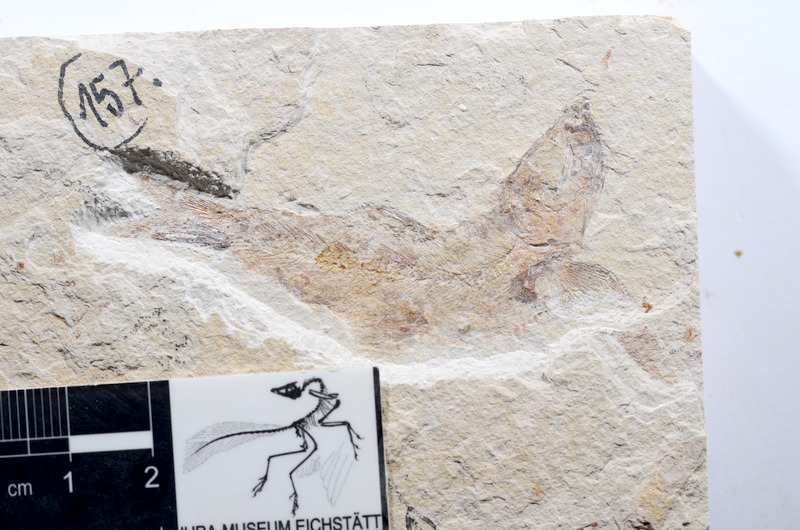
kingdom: Animalia
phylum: Chordata
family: Ascalaboidae
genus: Tharsis
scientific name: Tharsis dubius
